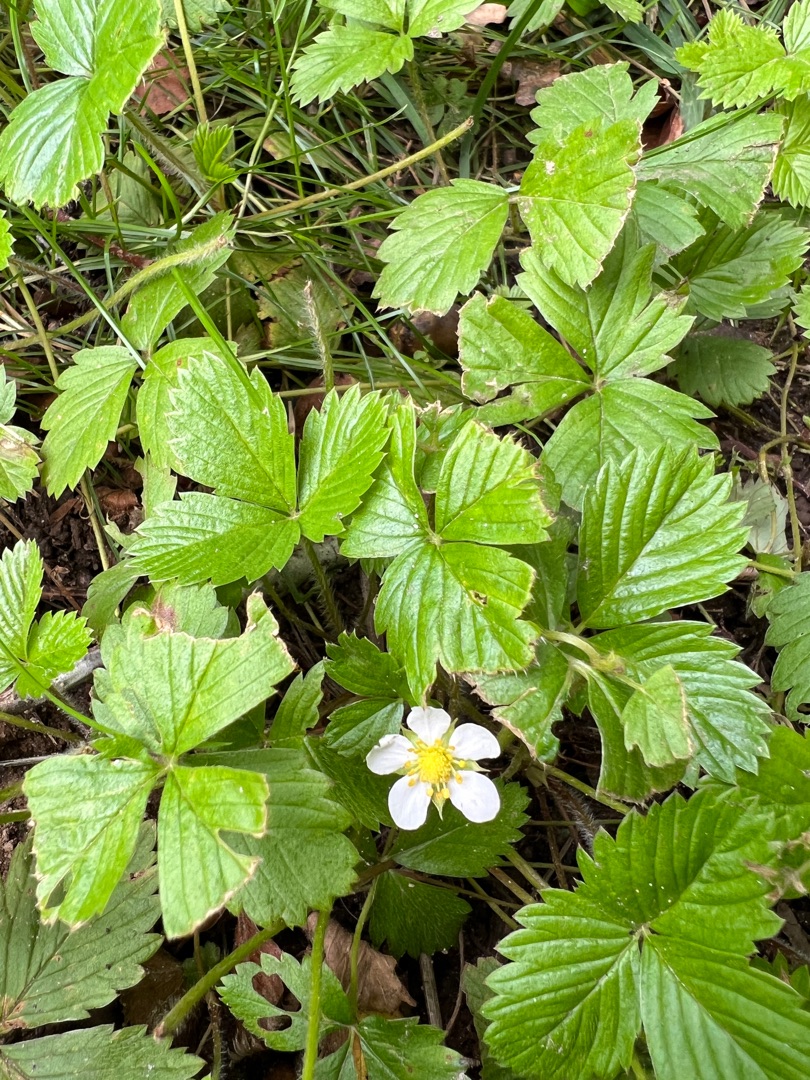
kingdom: Plantae
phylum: Tracheophyta
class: Magnoliopsida
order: Rosales
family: Rosaceae
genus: Fragaria
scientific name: Fragaria vesca
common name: Skov-jordbær
